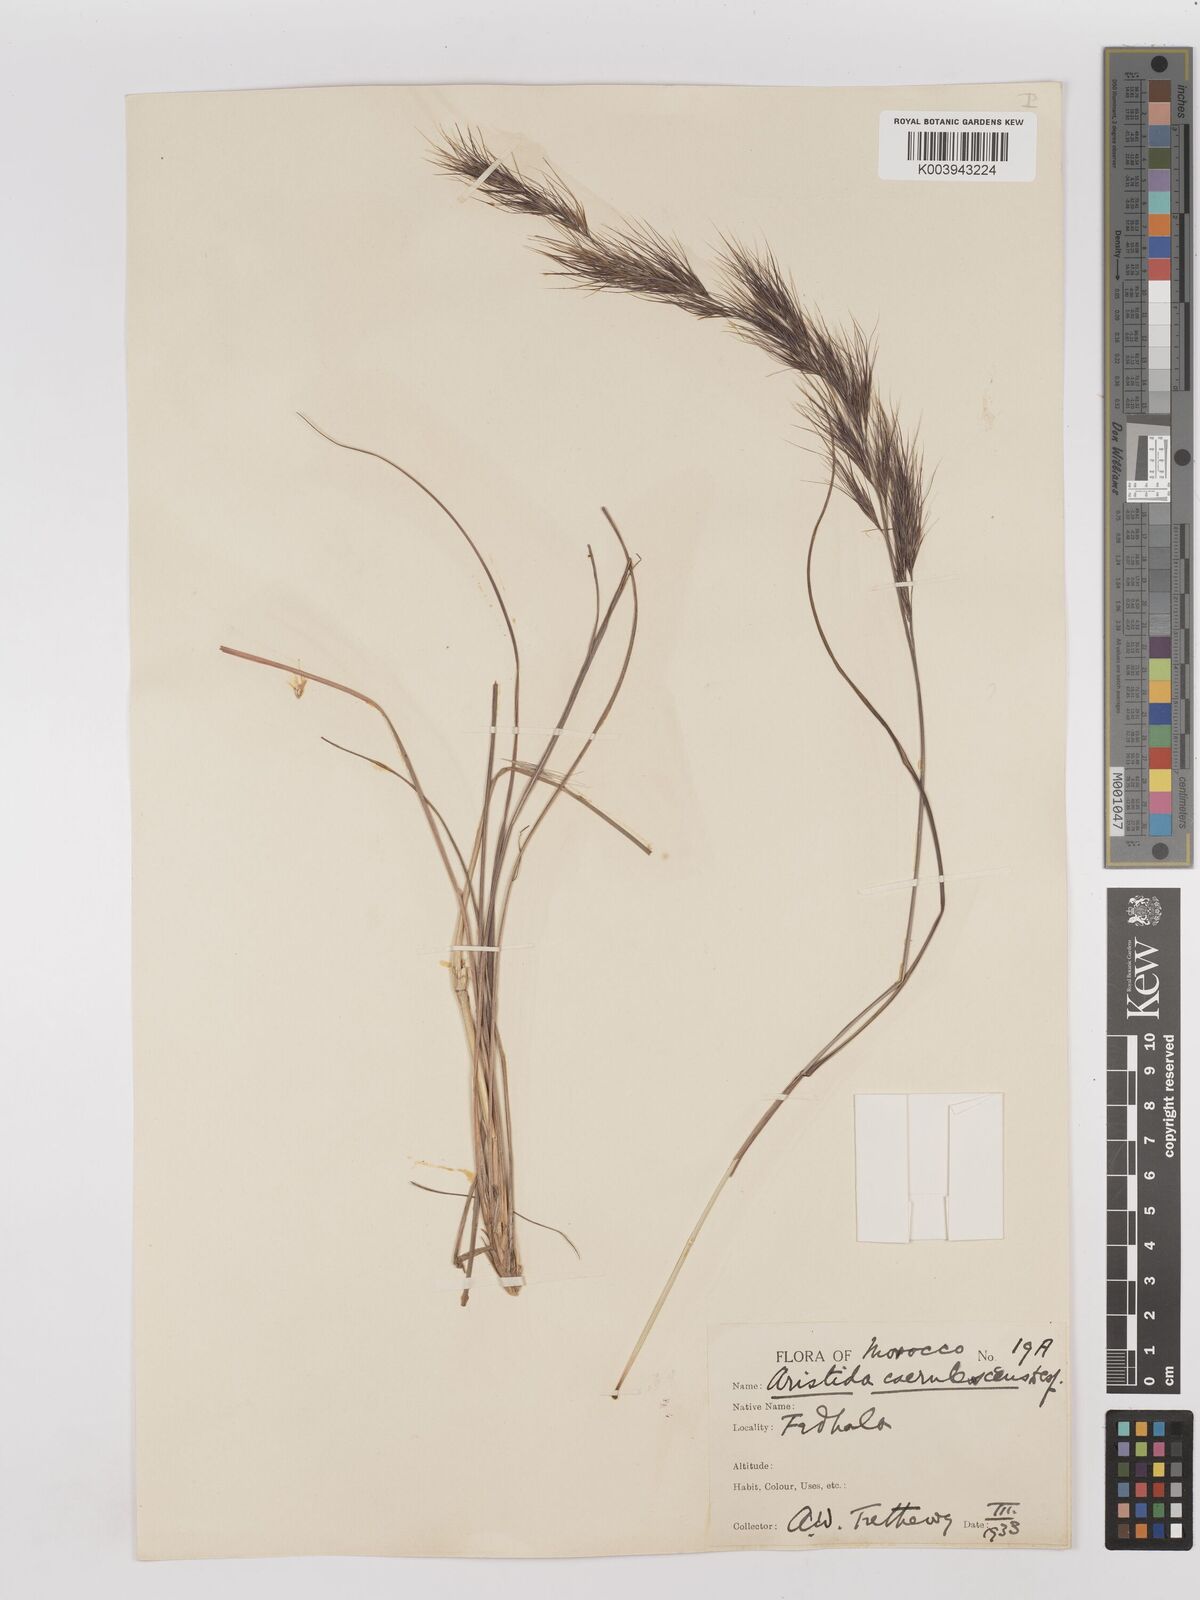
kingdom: Plantae
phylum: Tracheophyta
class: Liliopsida
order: Poales
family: Poaceae
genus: Aristida
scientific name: Aristida adscensionis
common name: Sixweeks threeawn
